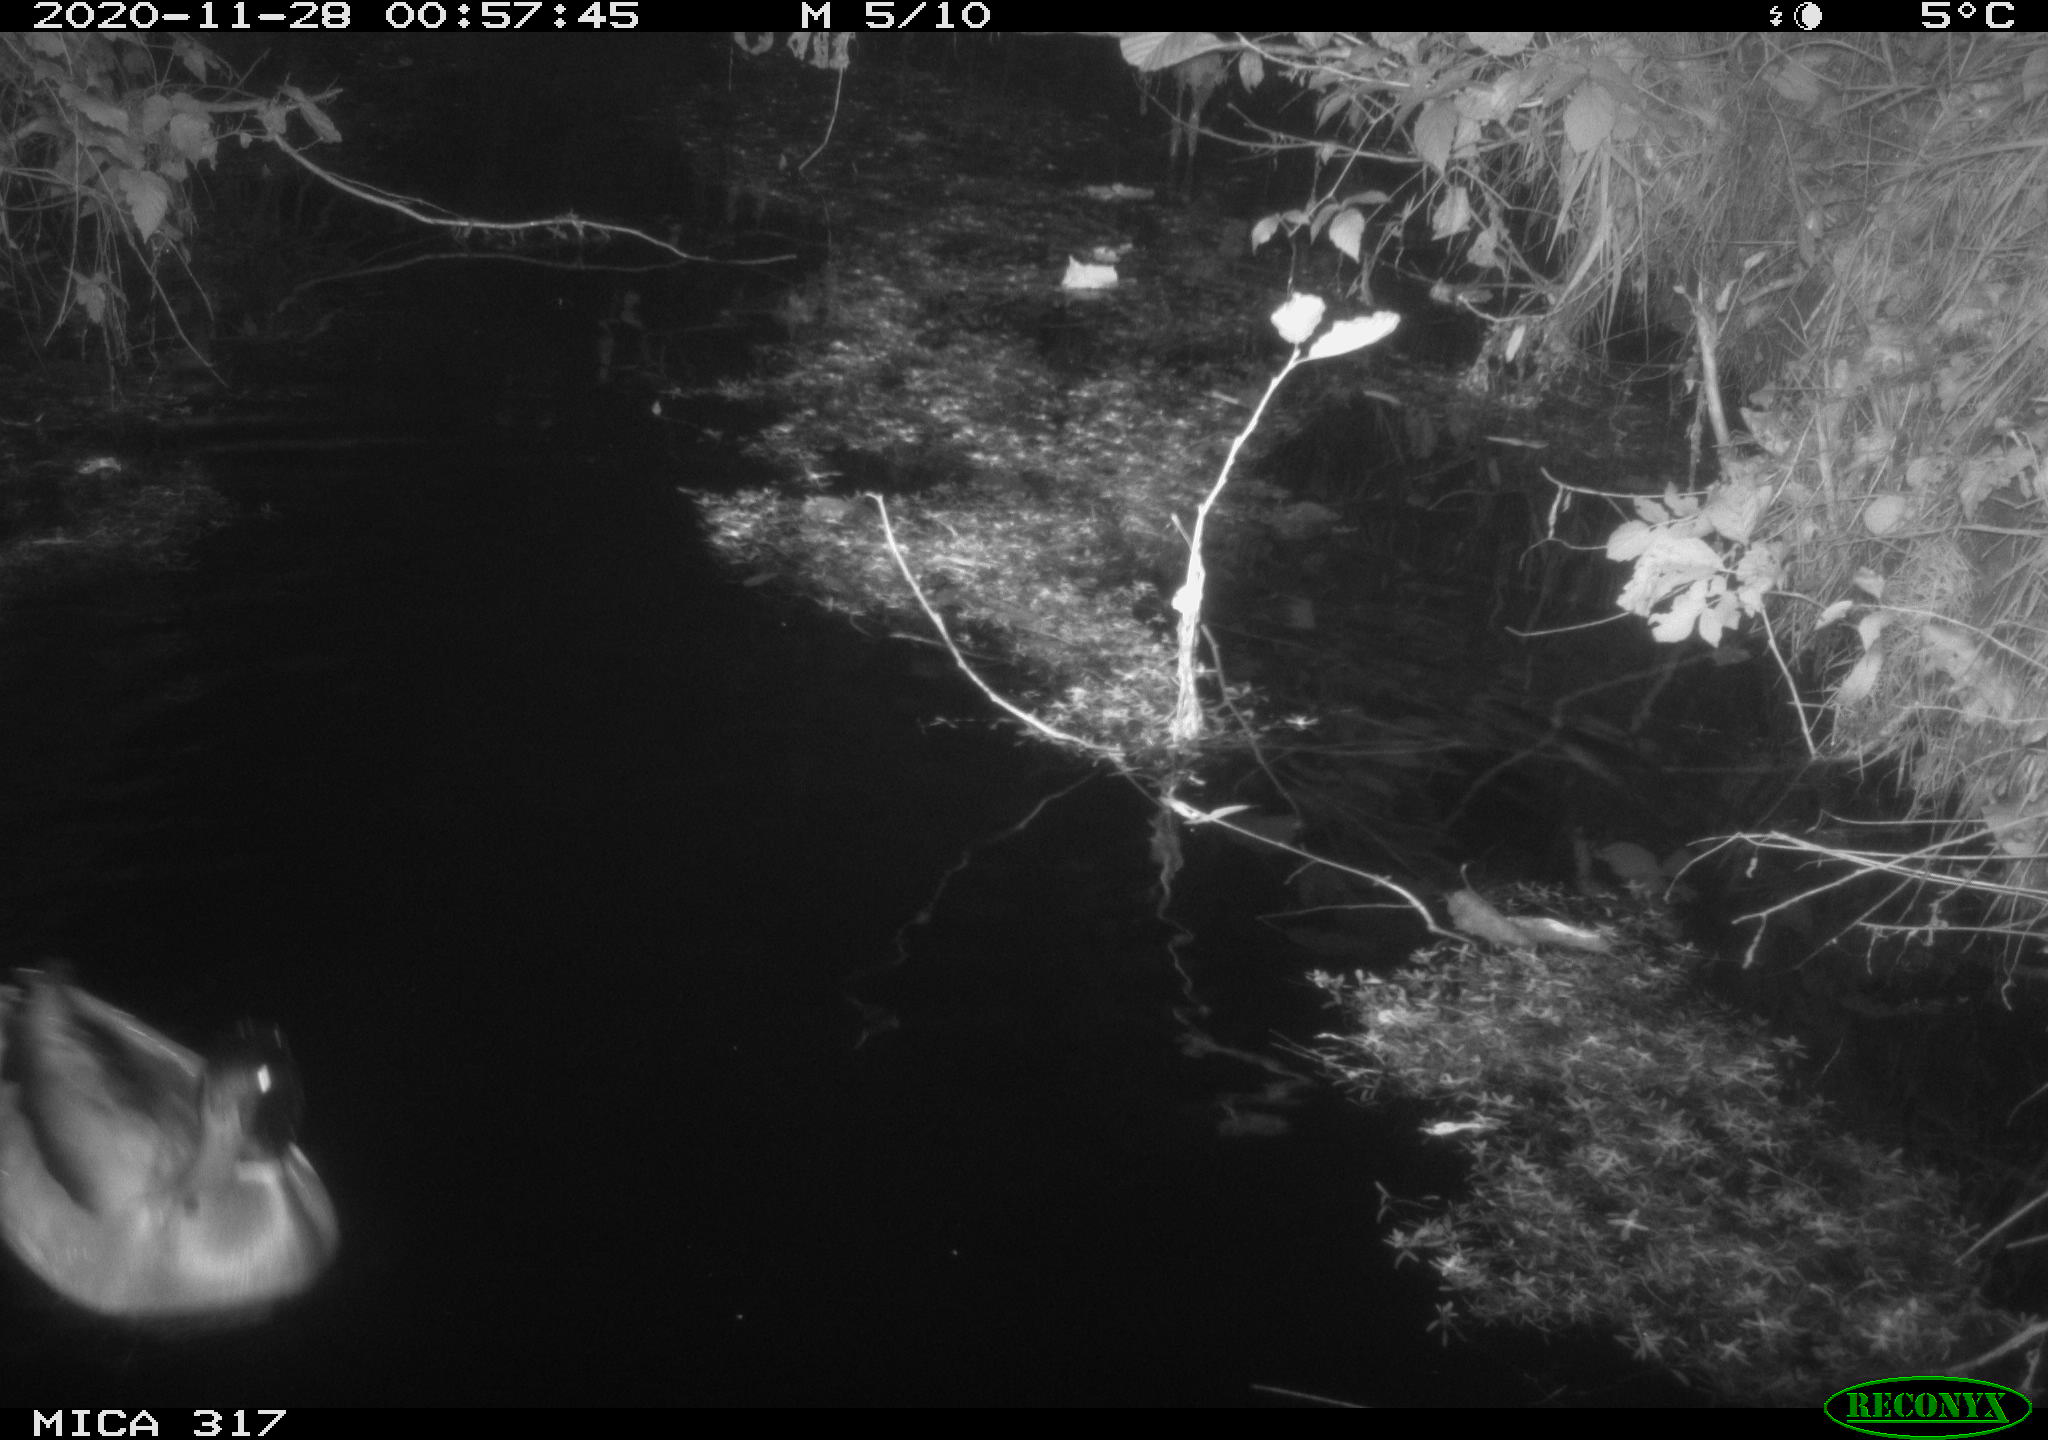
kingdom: Animalia
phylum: Chordata
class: Mammalia
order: Rodentia
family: Muridae
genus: Rattus
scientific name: Rattus norvegicus
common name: Brown rat
